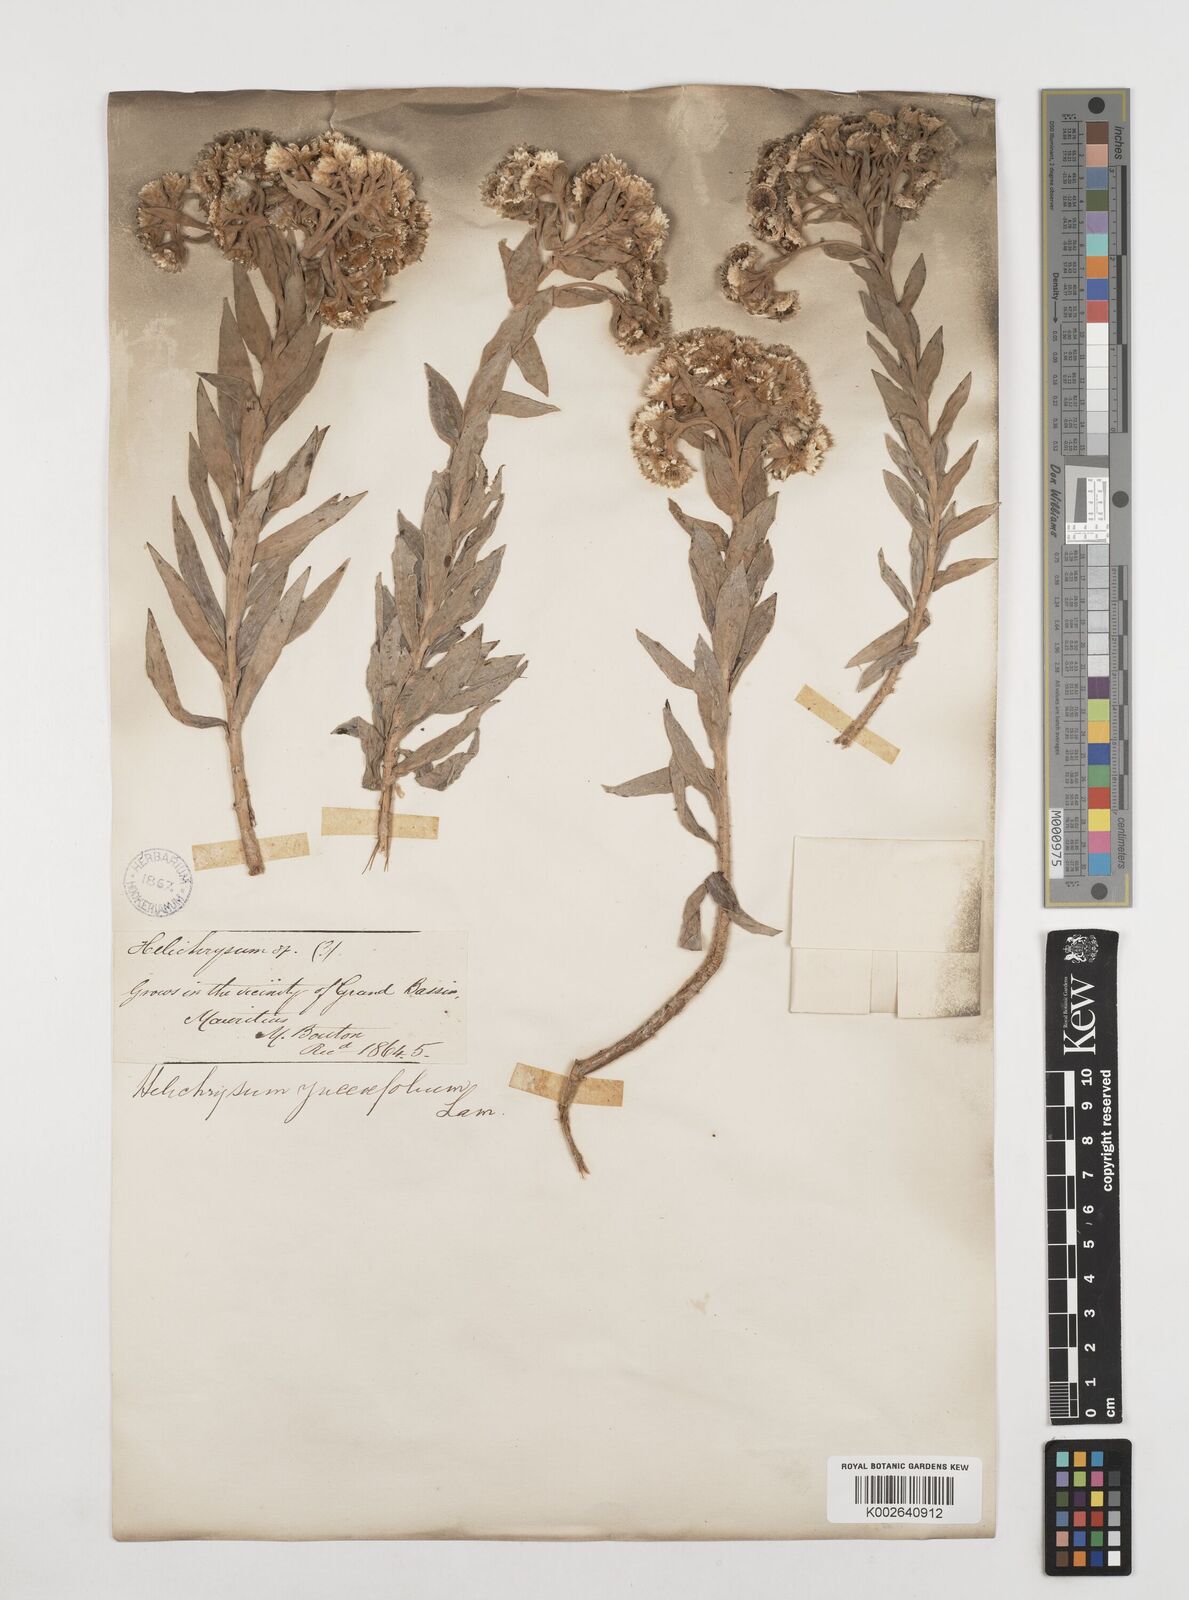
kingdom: Plantae
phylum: Tracheophyta
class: Magnoliopsida
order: Asterales
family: Asteraceae
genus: Helichrysum
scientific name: Helichrysum proteoides
